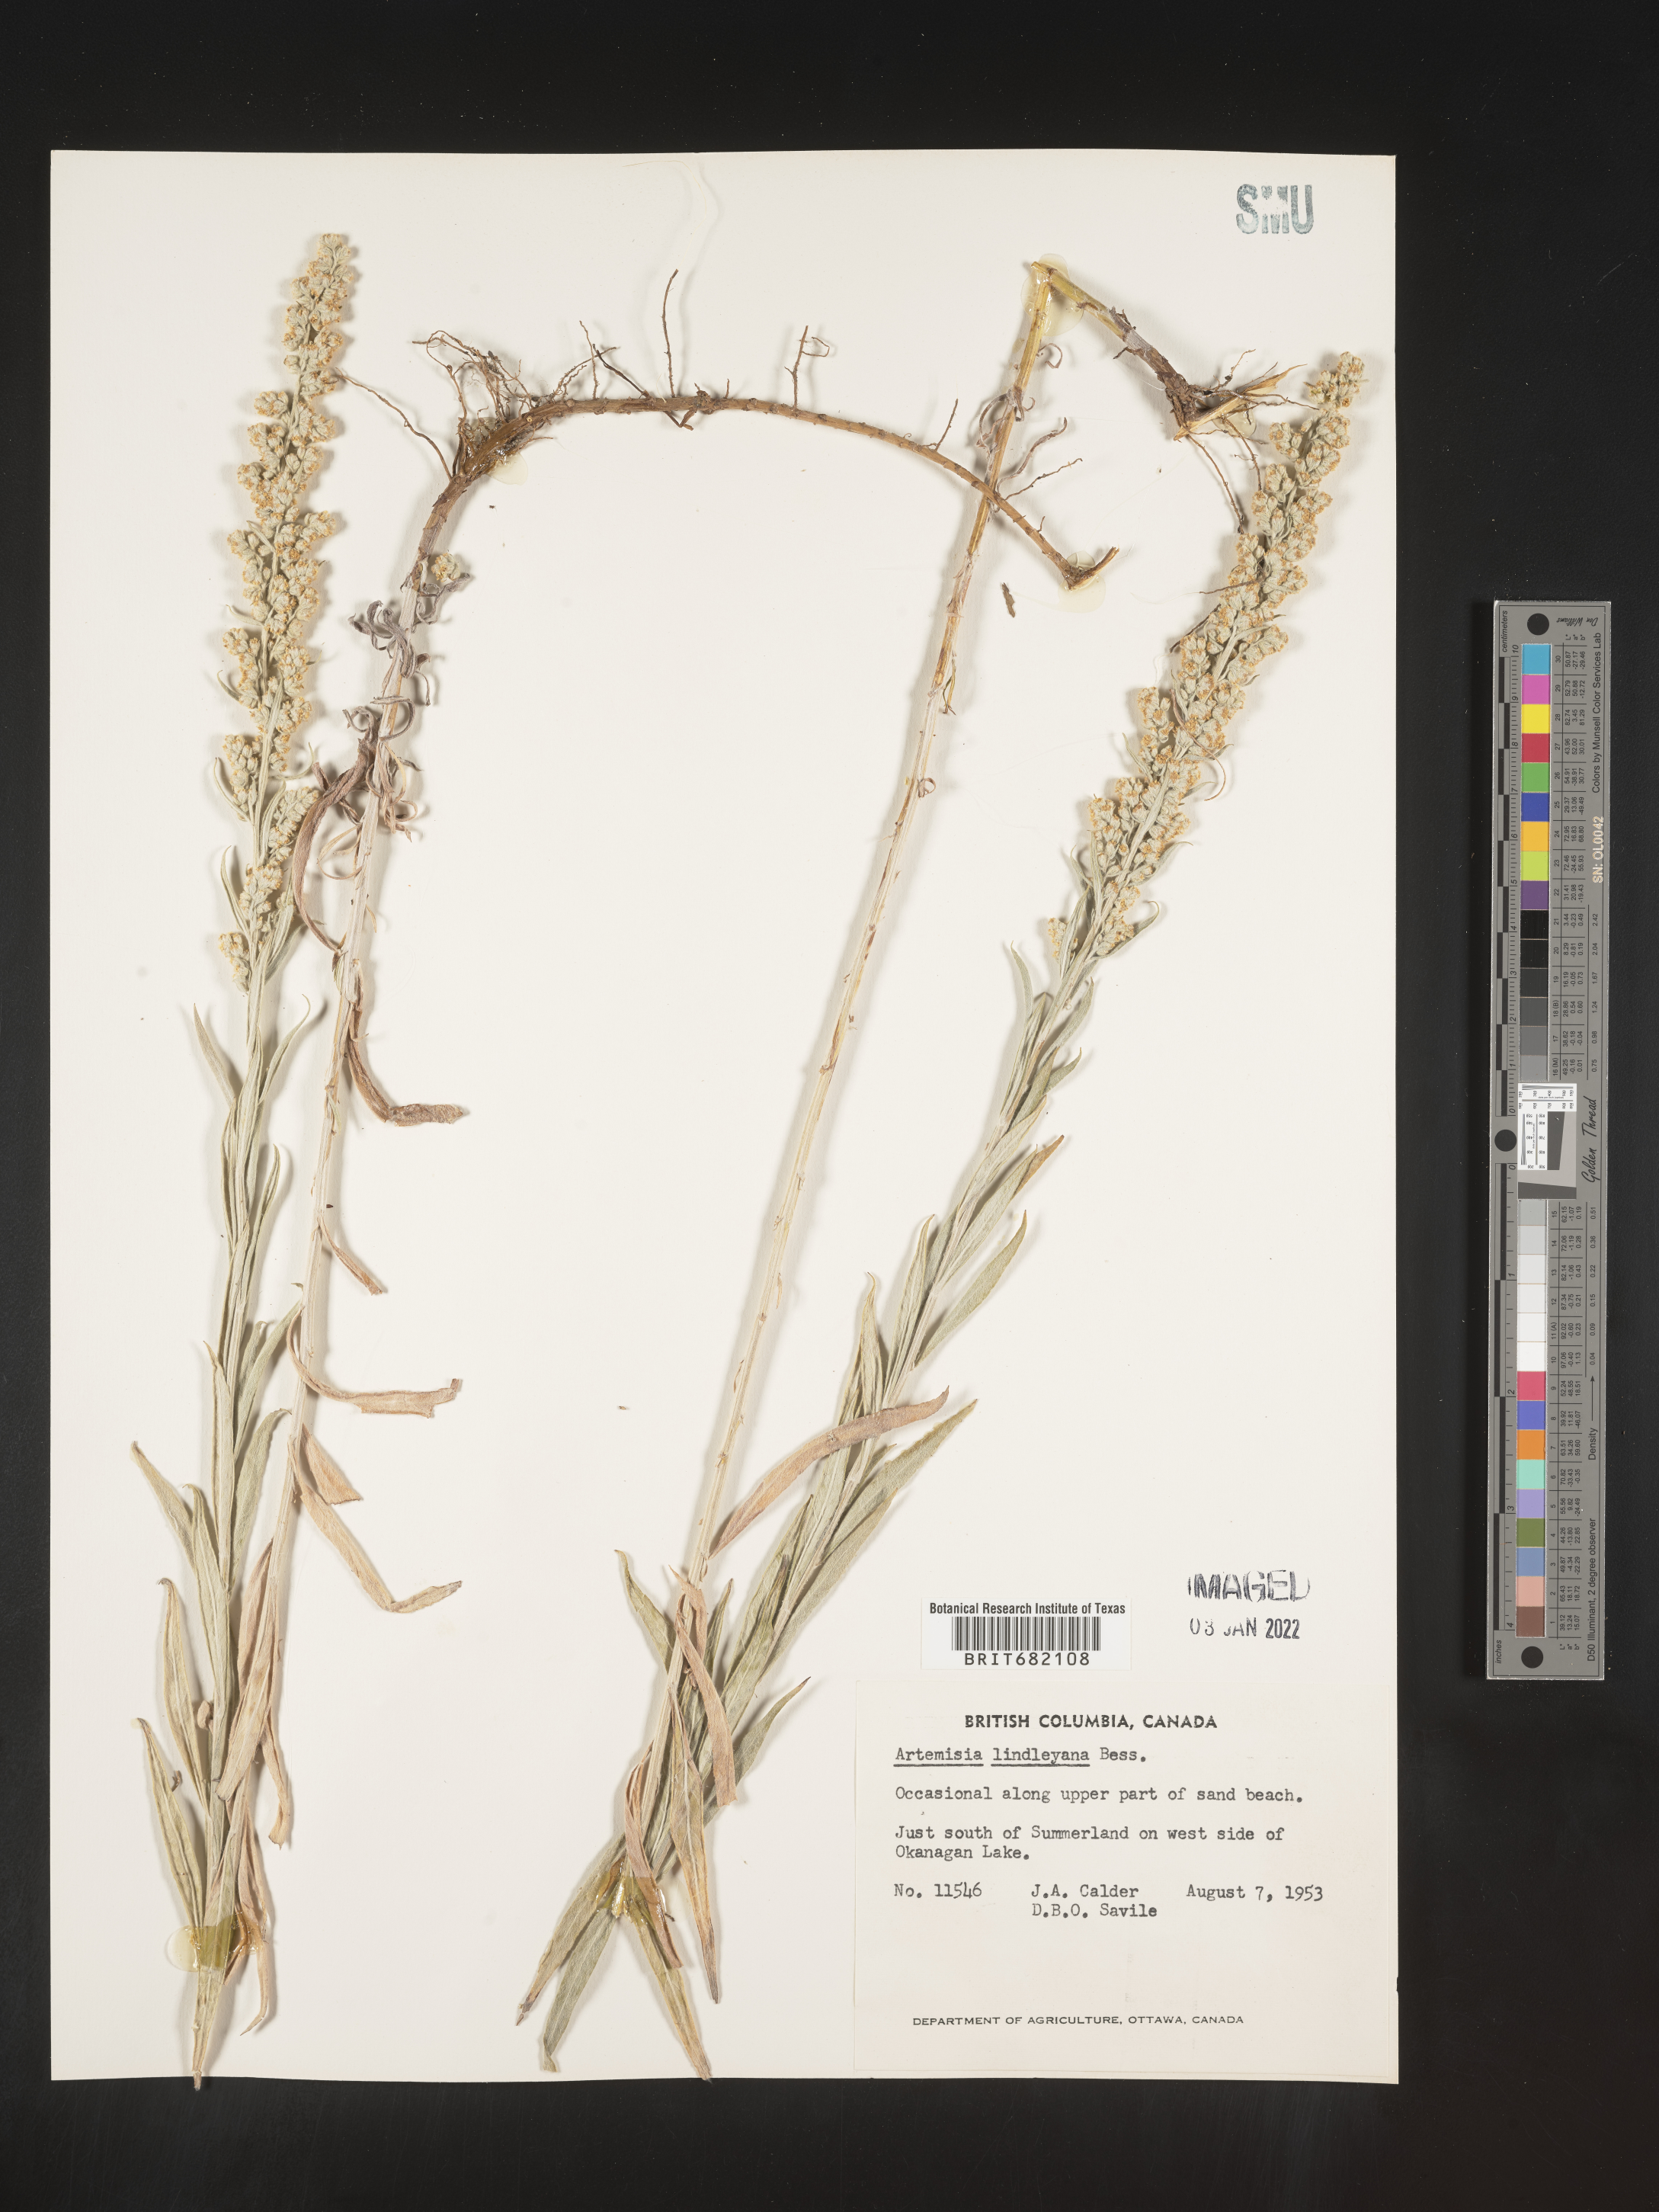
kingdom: Plantae
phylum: Tracheophyta
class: Magnoliopsida
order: Asterales
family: Asteraceae
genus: Artemisia
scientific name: Artemisia ludoviciana
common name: Western mugwort
